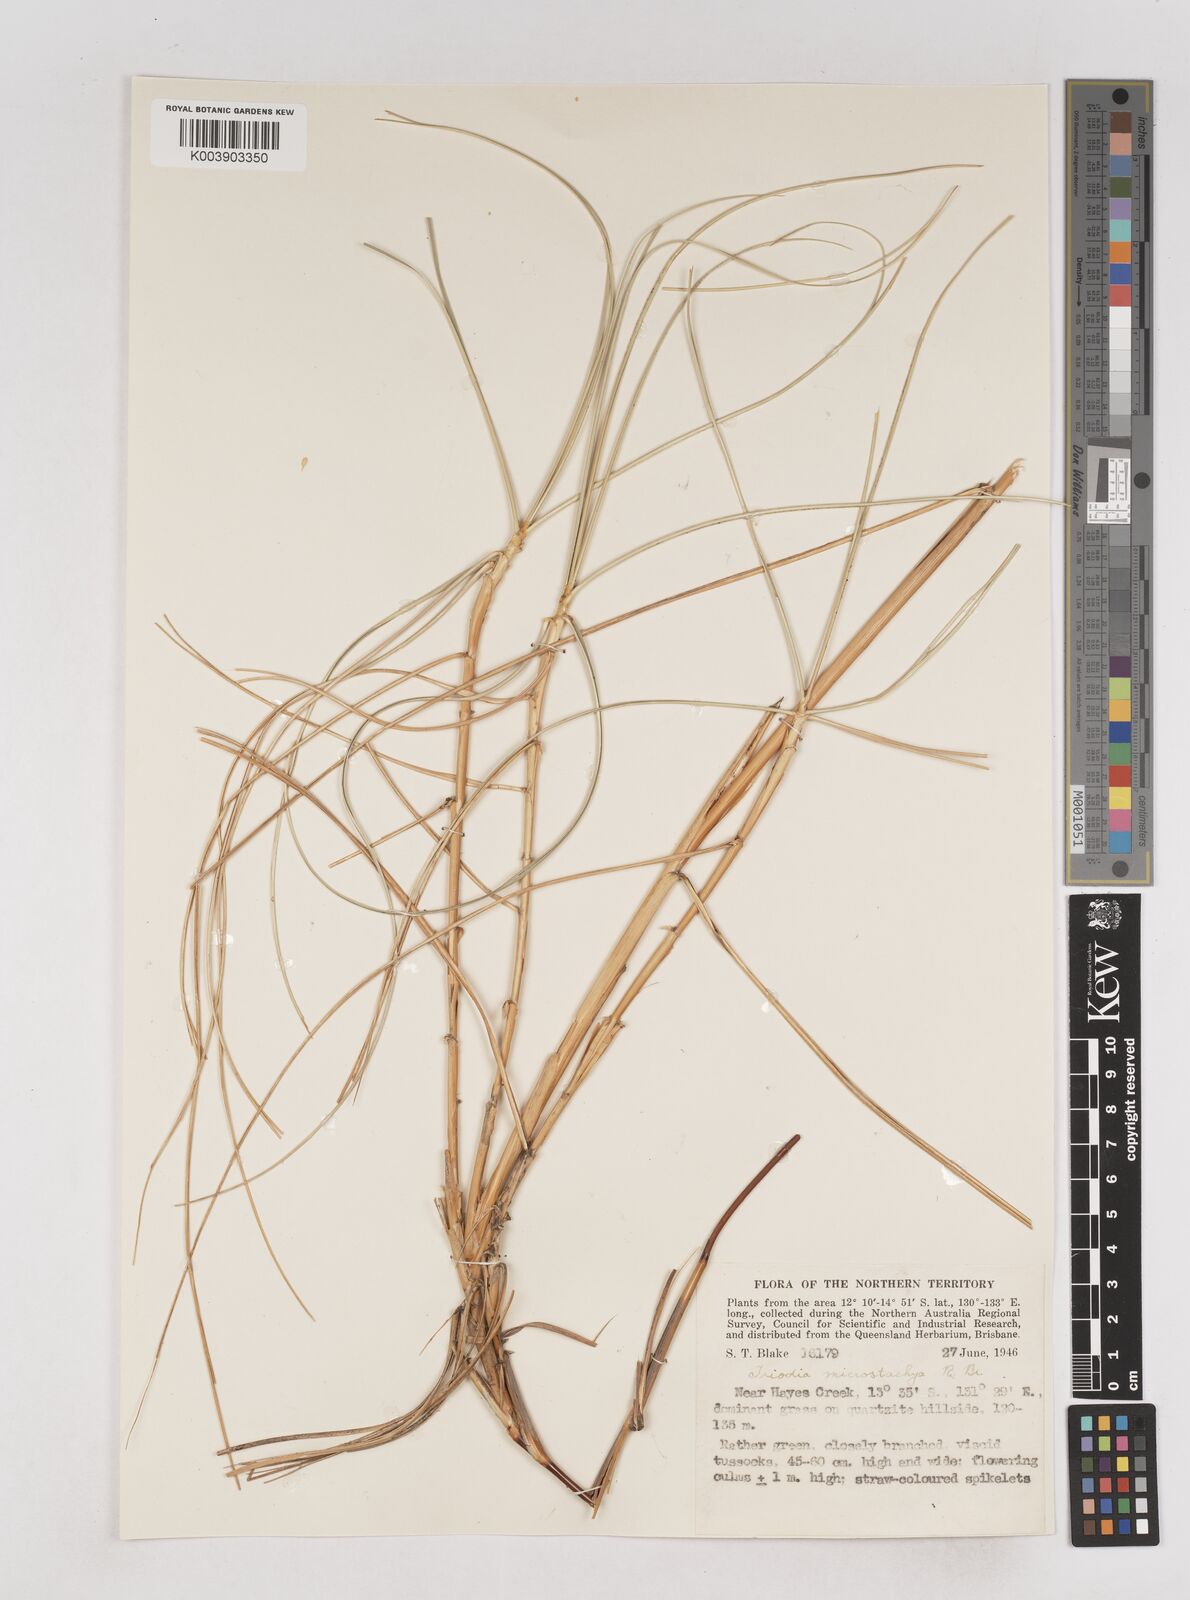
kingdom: Plantae
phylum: Tracheophyta
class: Liliopsida
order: Poales
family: Poaceae
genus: Triodia
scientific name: Triodia microstachya
